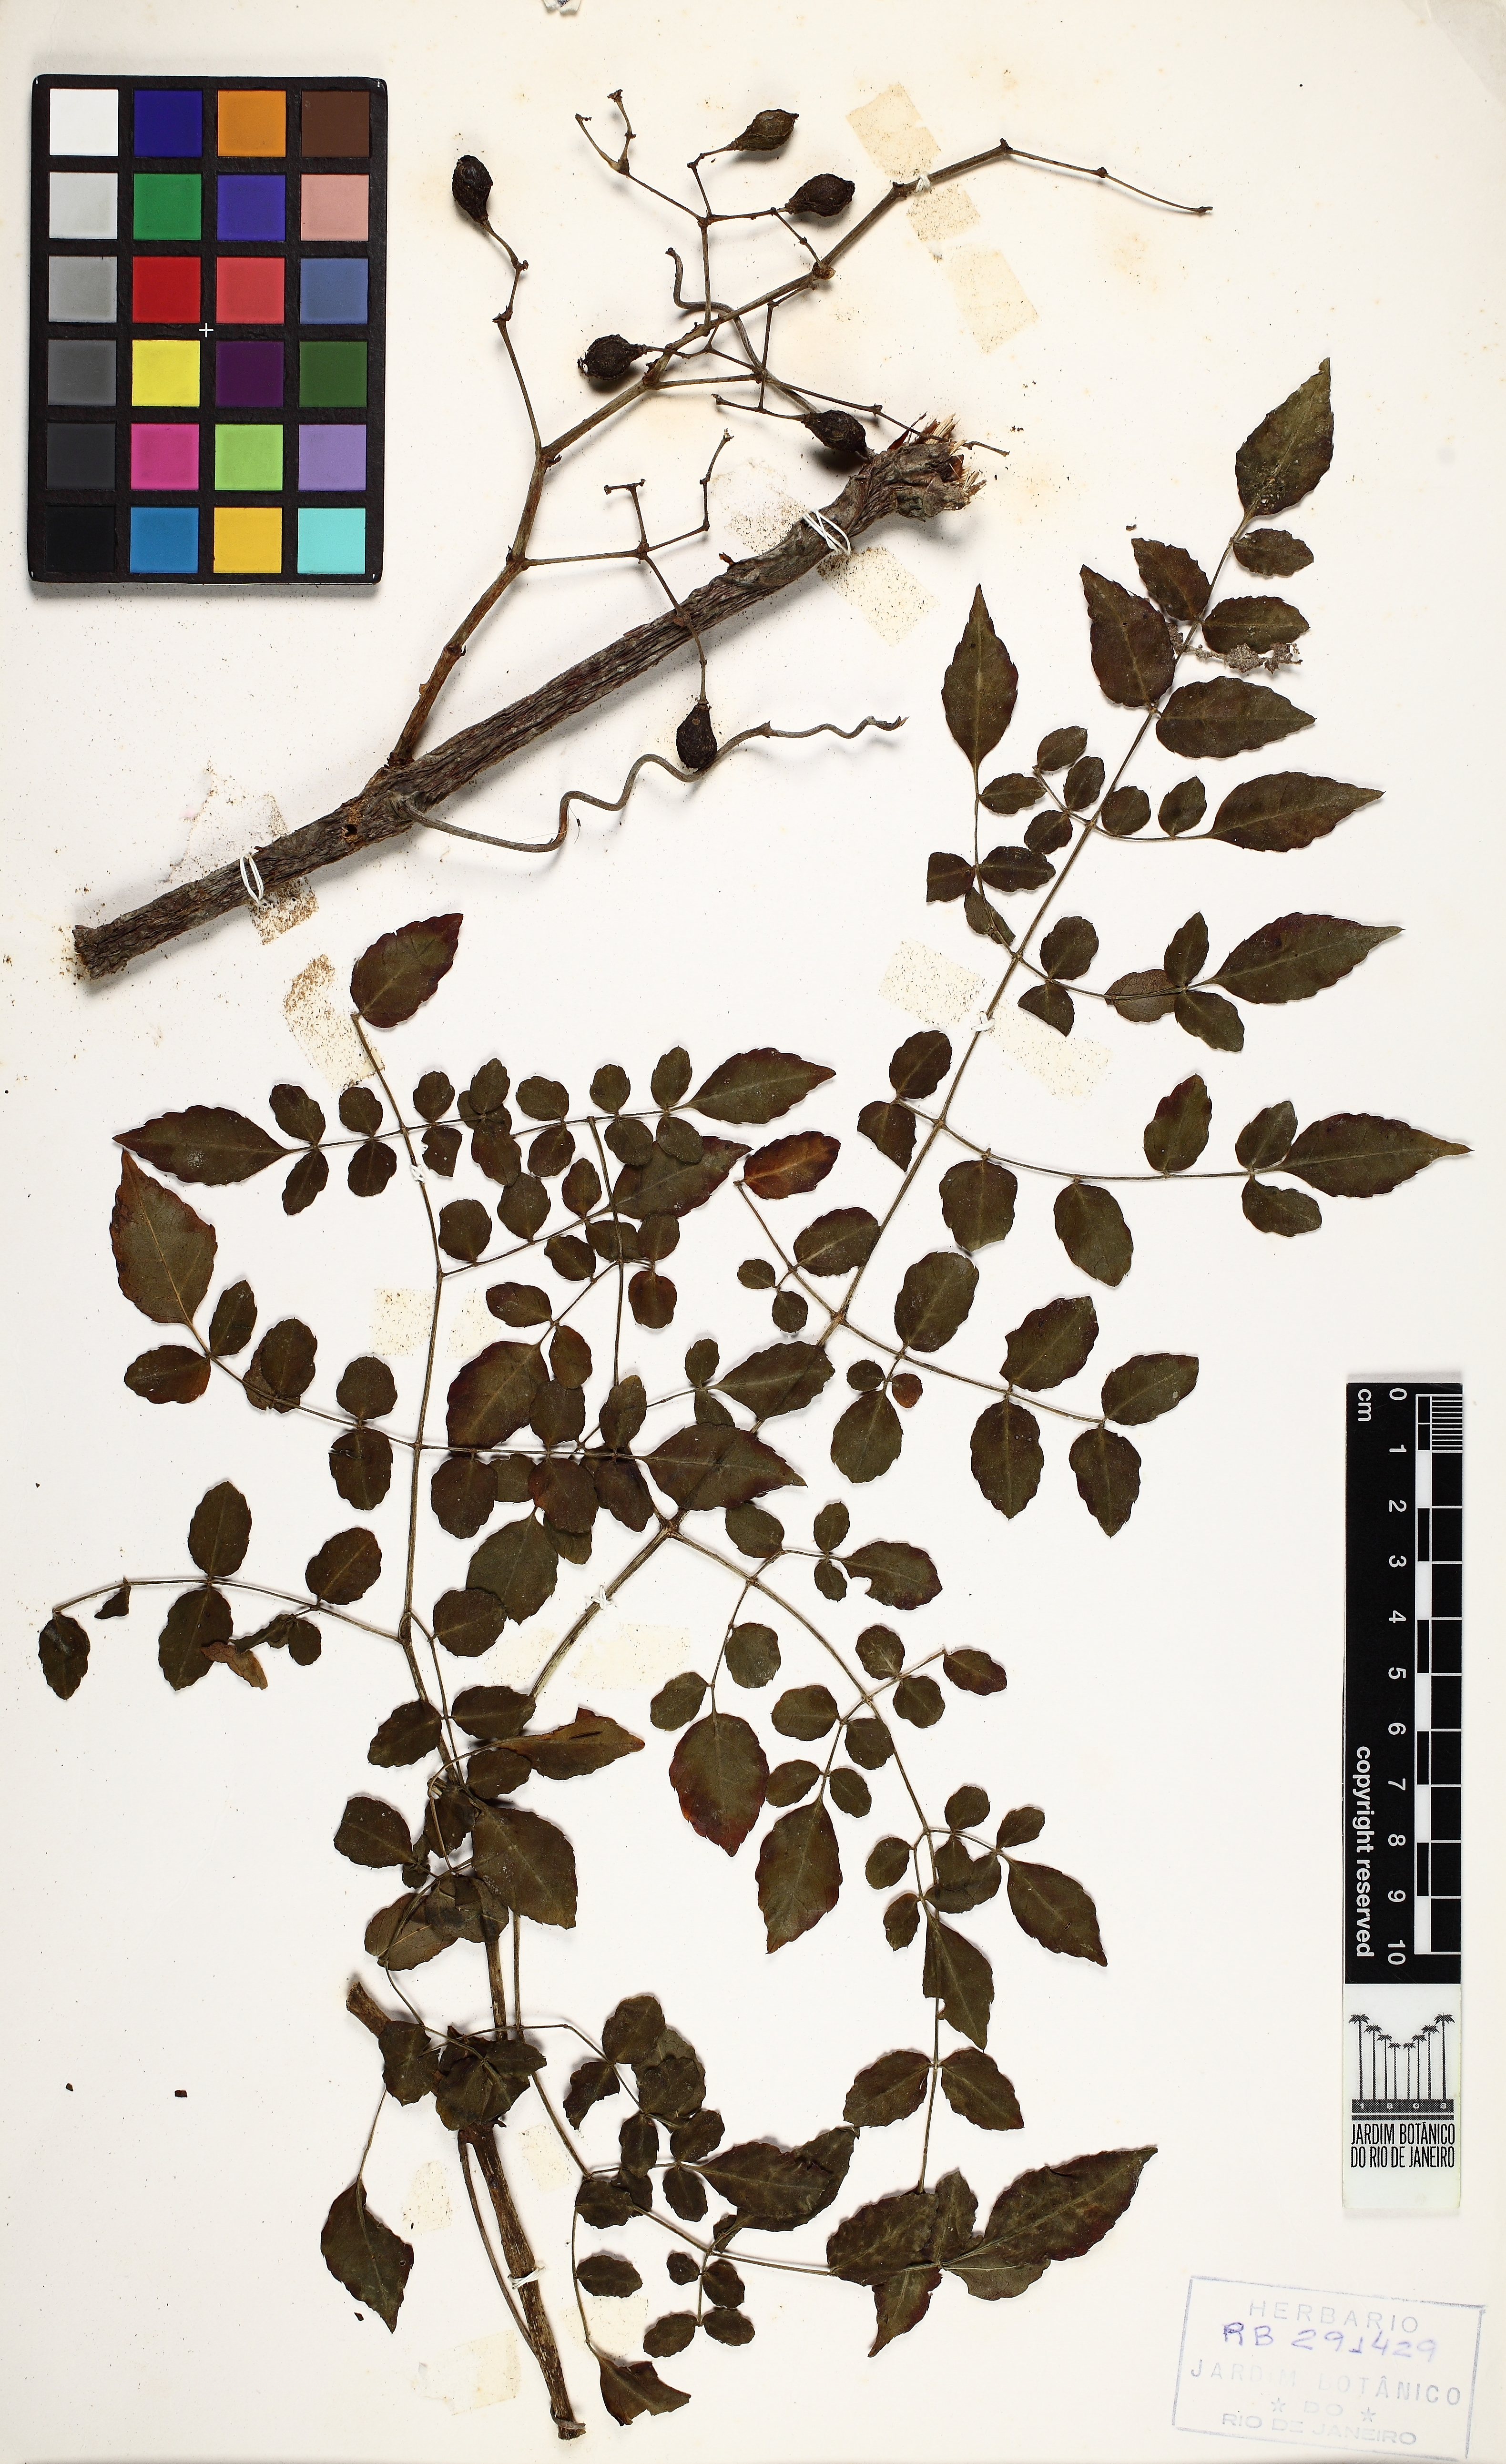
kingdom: Plantae
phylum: Tracheophyta
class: Magnoliopsida
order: Vitales
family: Vitaceae
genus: Cissus
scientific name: Cissus serroniana
